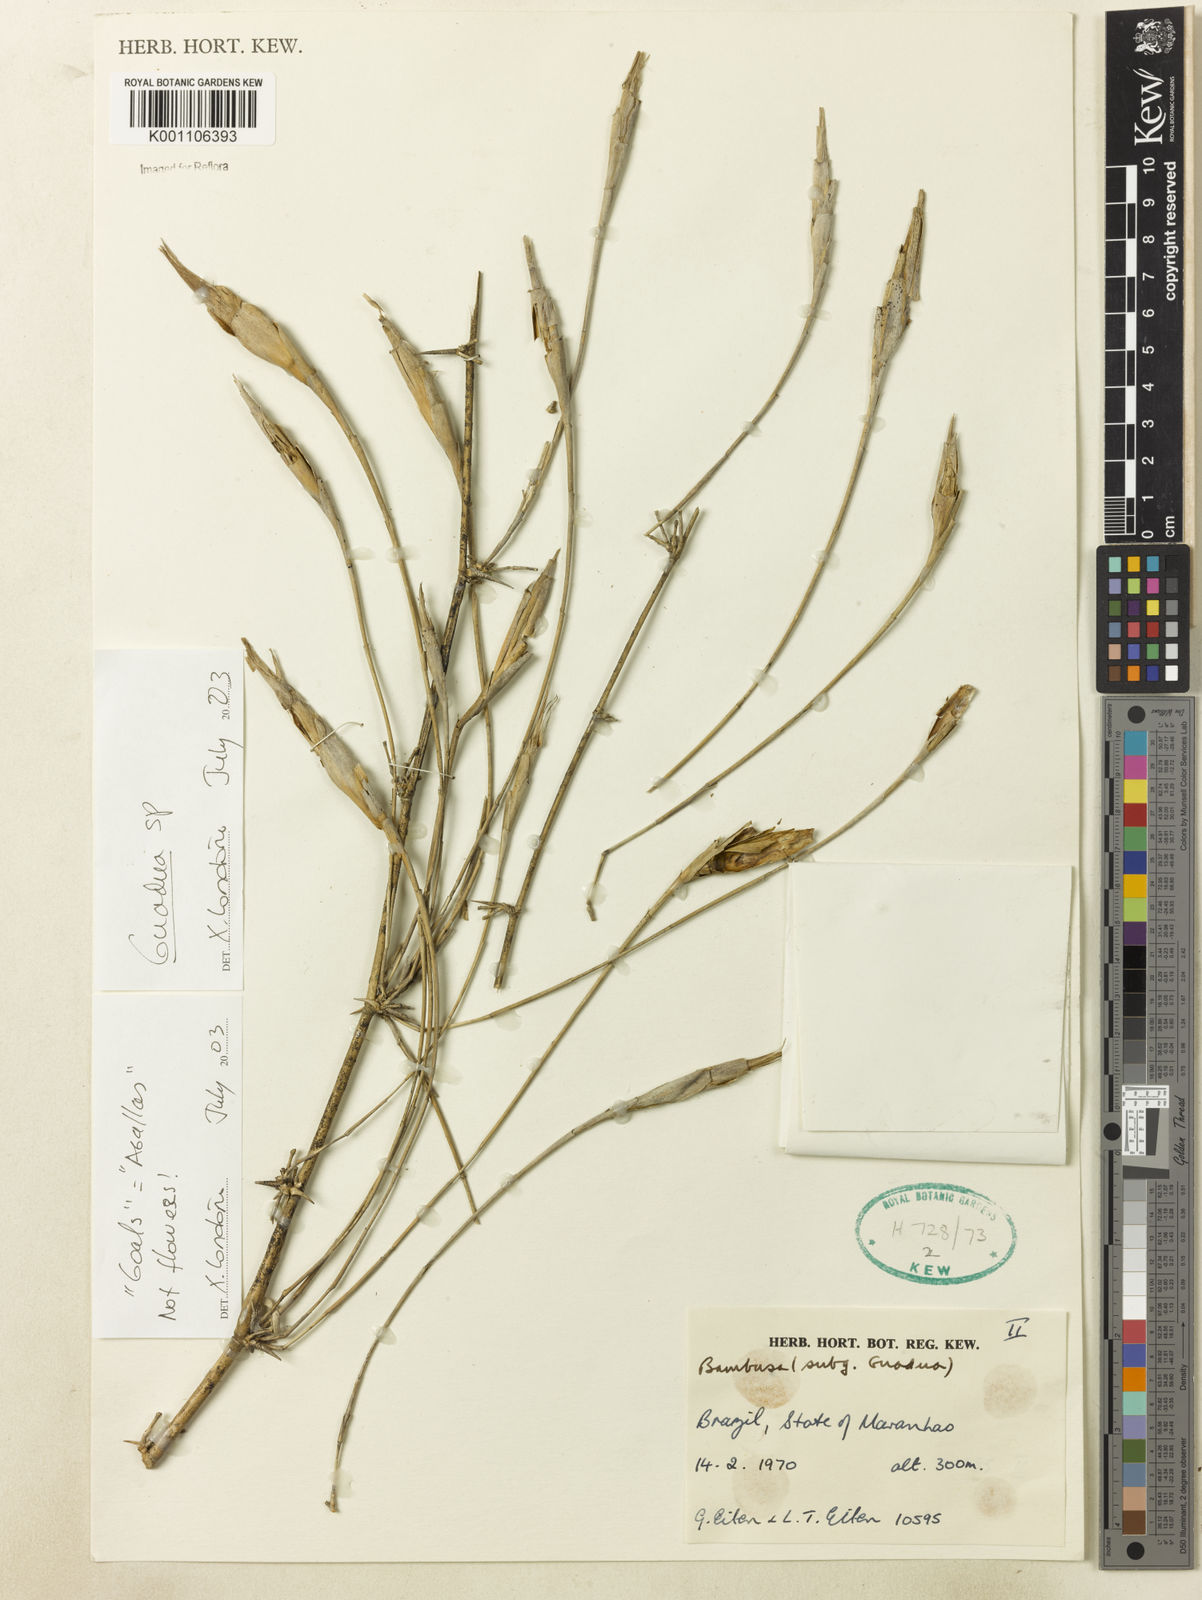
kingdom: Plantae
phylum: Tracheophyta
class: Liliopsida
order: Poales
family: Poaceae
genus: Guadua
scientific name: Guadua paniculata
